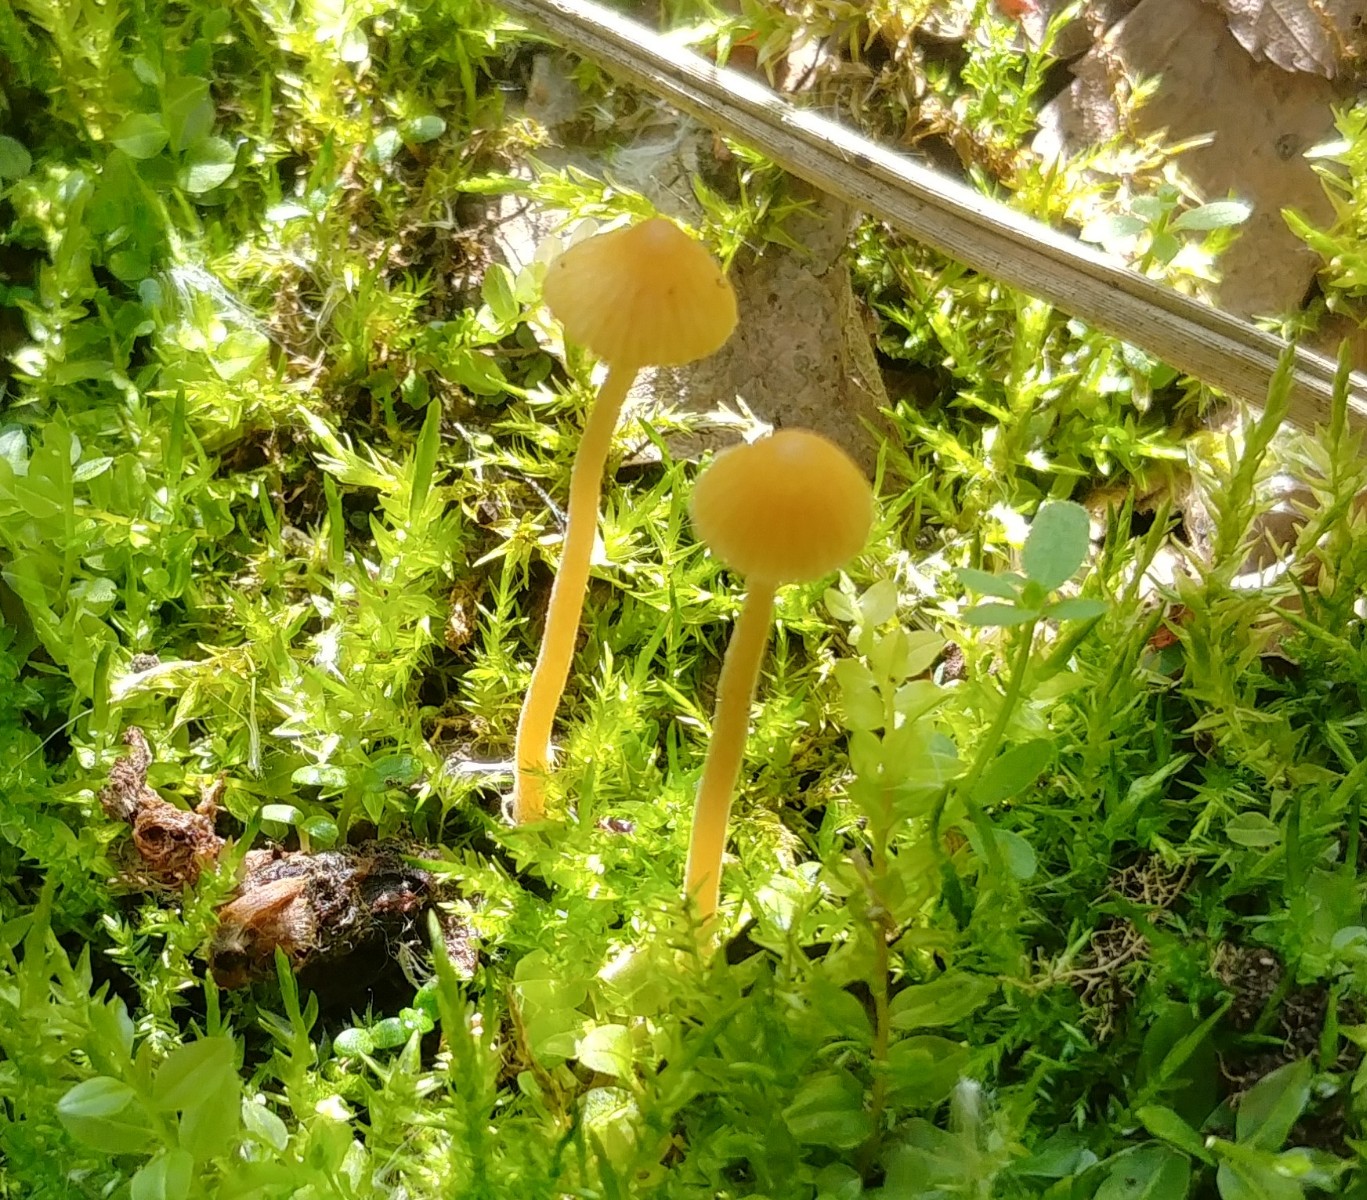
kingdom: Fungi
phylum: Basidiomycota
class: Agaricomycetes
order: Agaricales
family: Hymenogastraceae
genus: Galerina
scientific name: Galerina clavata
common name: kær-hjelmhat
